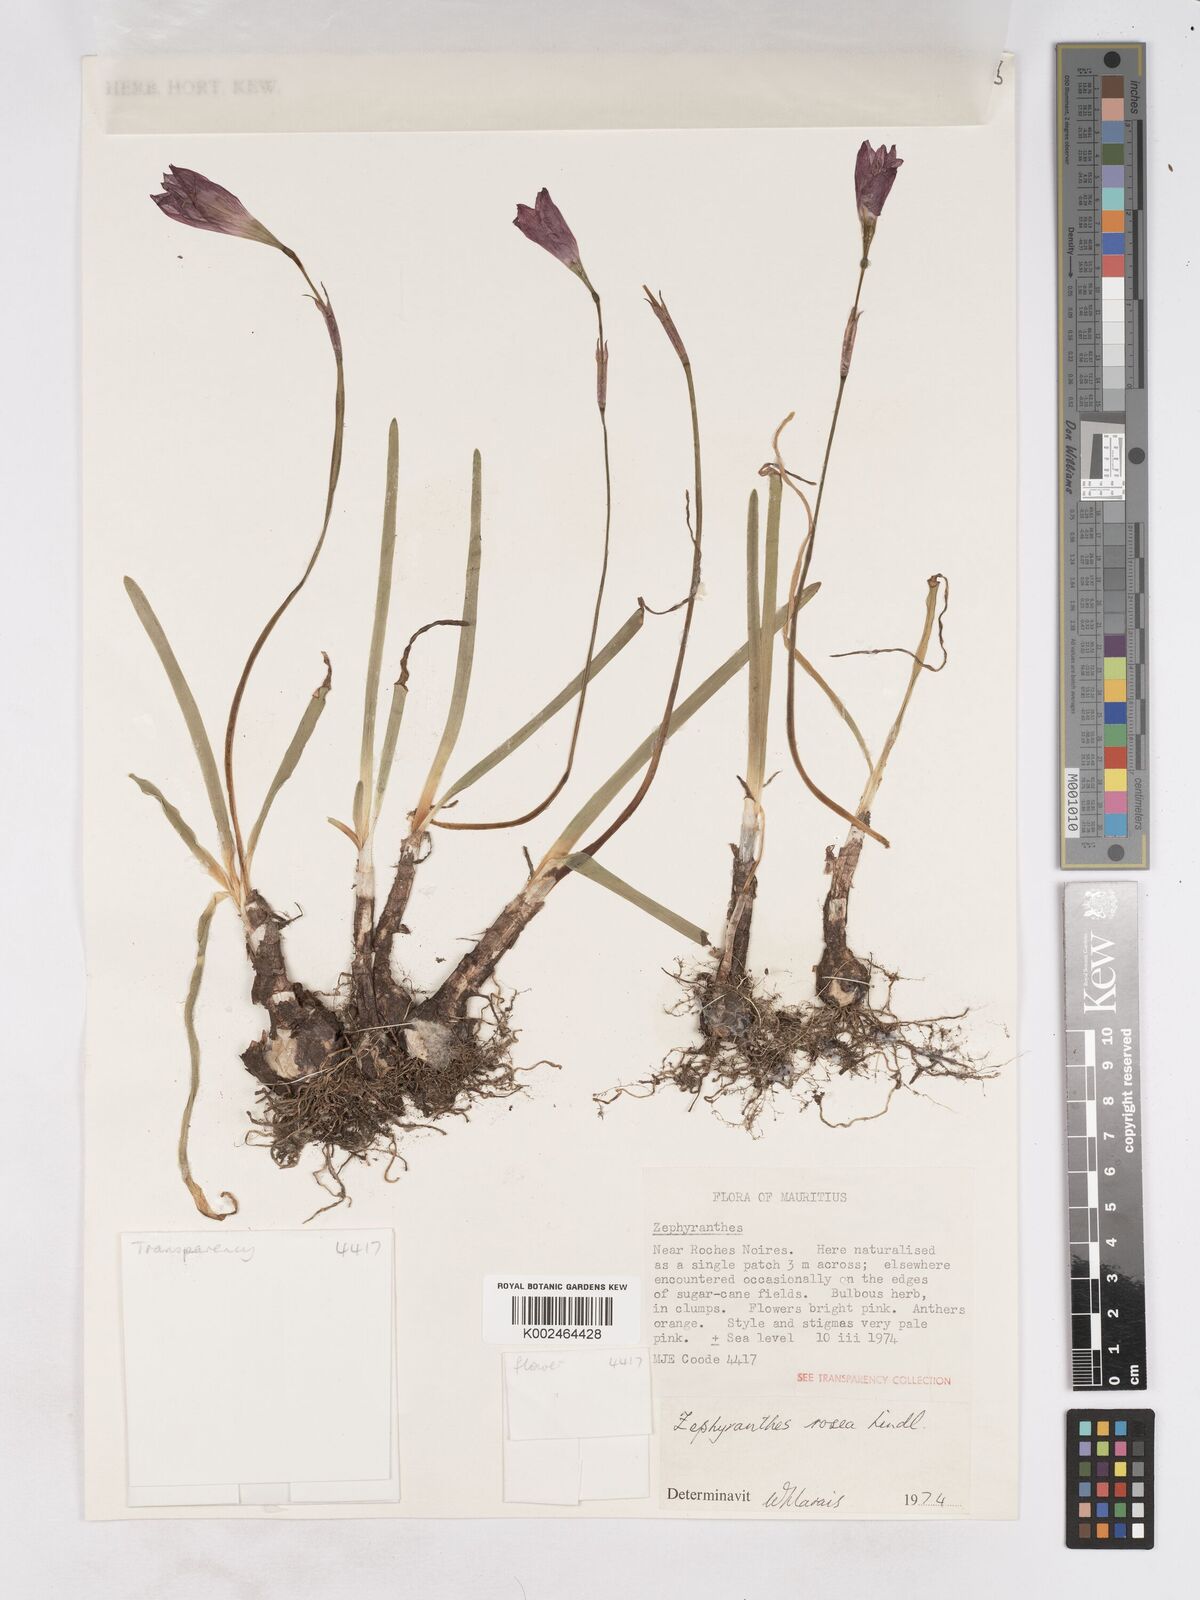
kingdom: Plantae
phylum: Tracheophyta
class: Liliopsida
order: Asparagales
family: Amaryllidaceae
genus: Zephyranthes
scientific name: Zephyranthes rosea
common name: Cuban zephyrlily
